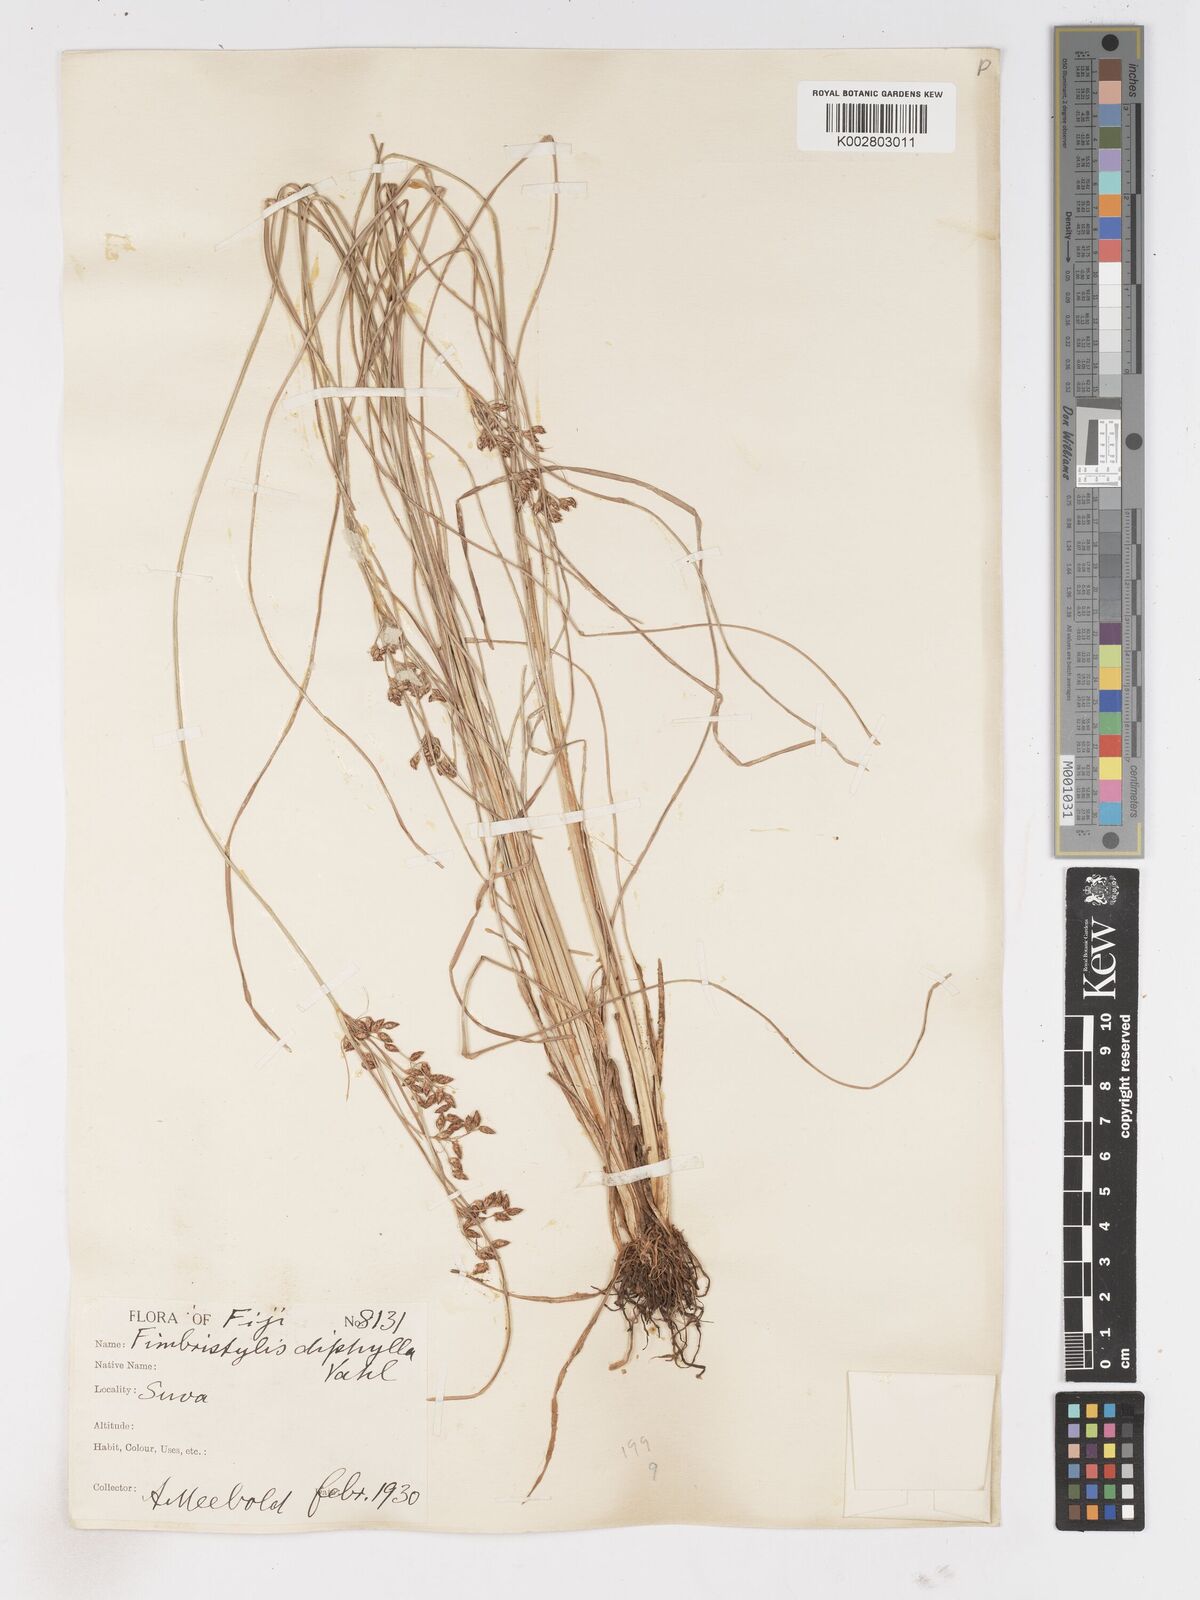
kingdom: Plantae
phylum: Tracheophyta
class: Liliopsida
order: Poales
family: Cyperaceae
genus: Fimbristylis
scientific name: Fimbristylis dichotoma
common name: Forked fimbry
